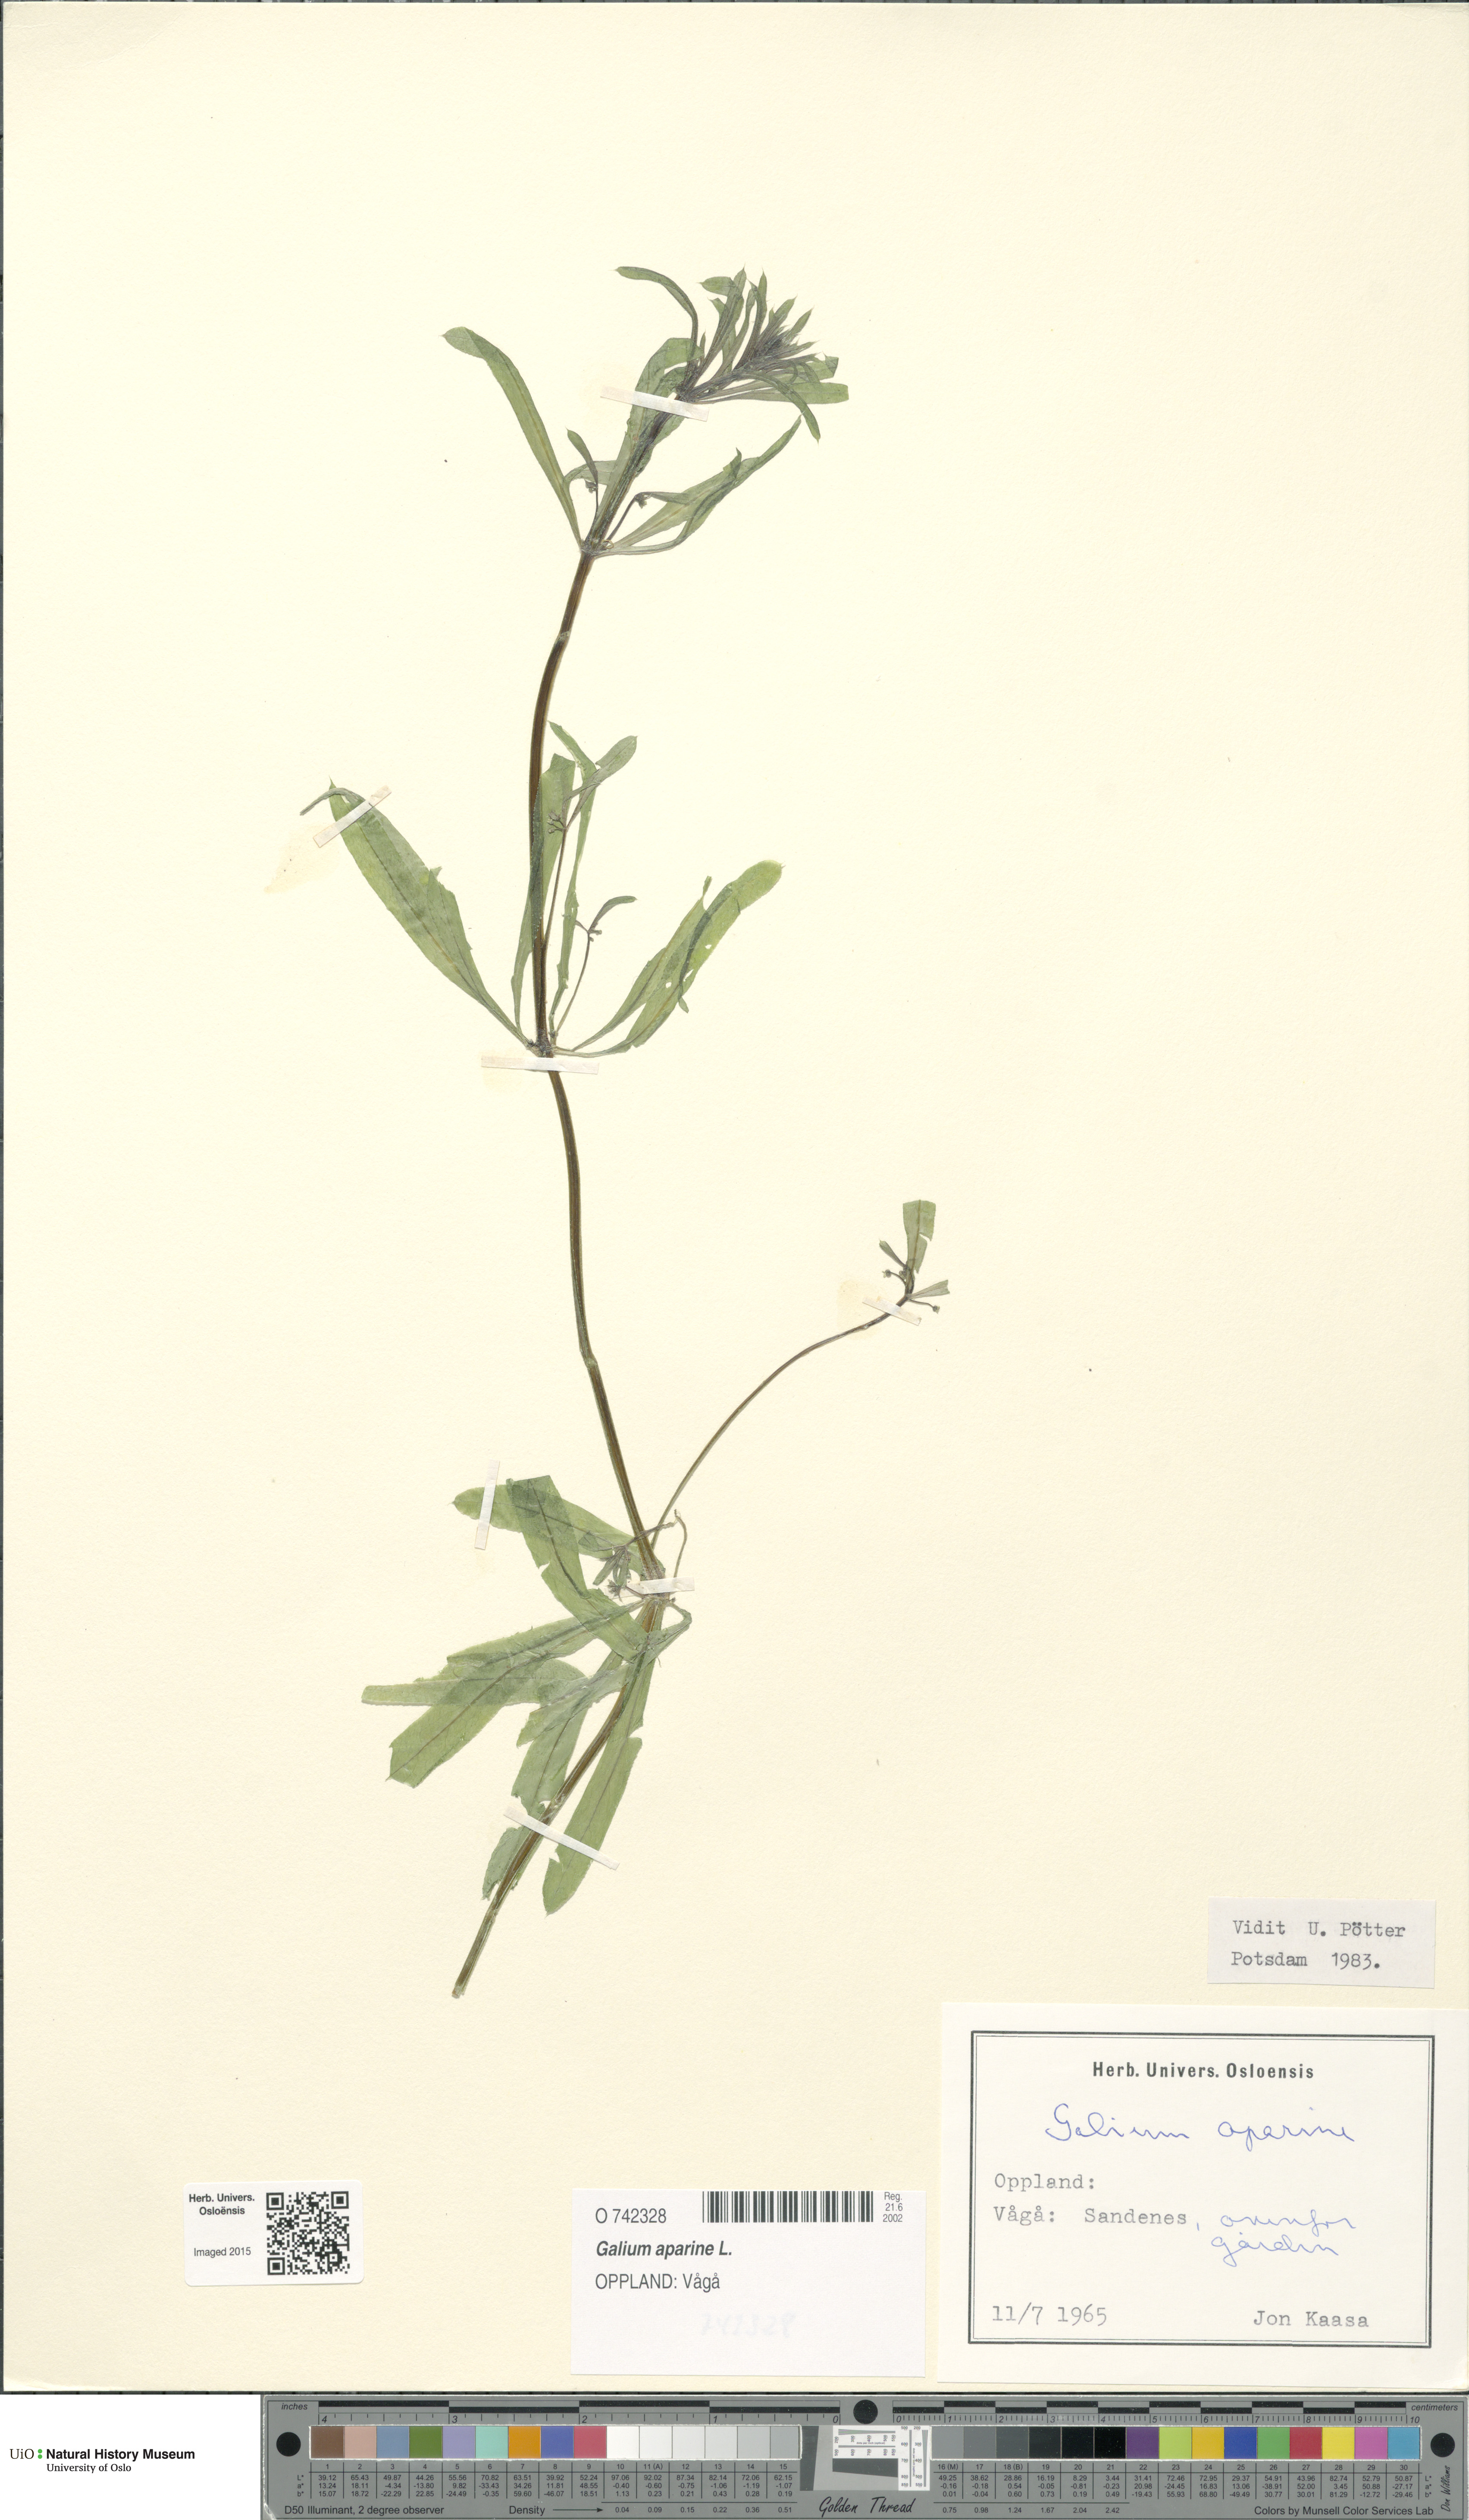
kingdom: Plantae
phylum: Tracheophyta
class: Magnoliopsida
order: Gentianales
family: Rubiaceae
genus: Galium
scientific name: Galium aparine
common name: Cleavers
